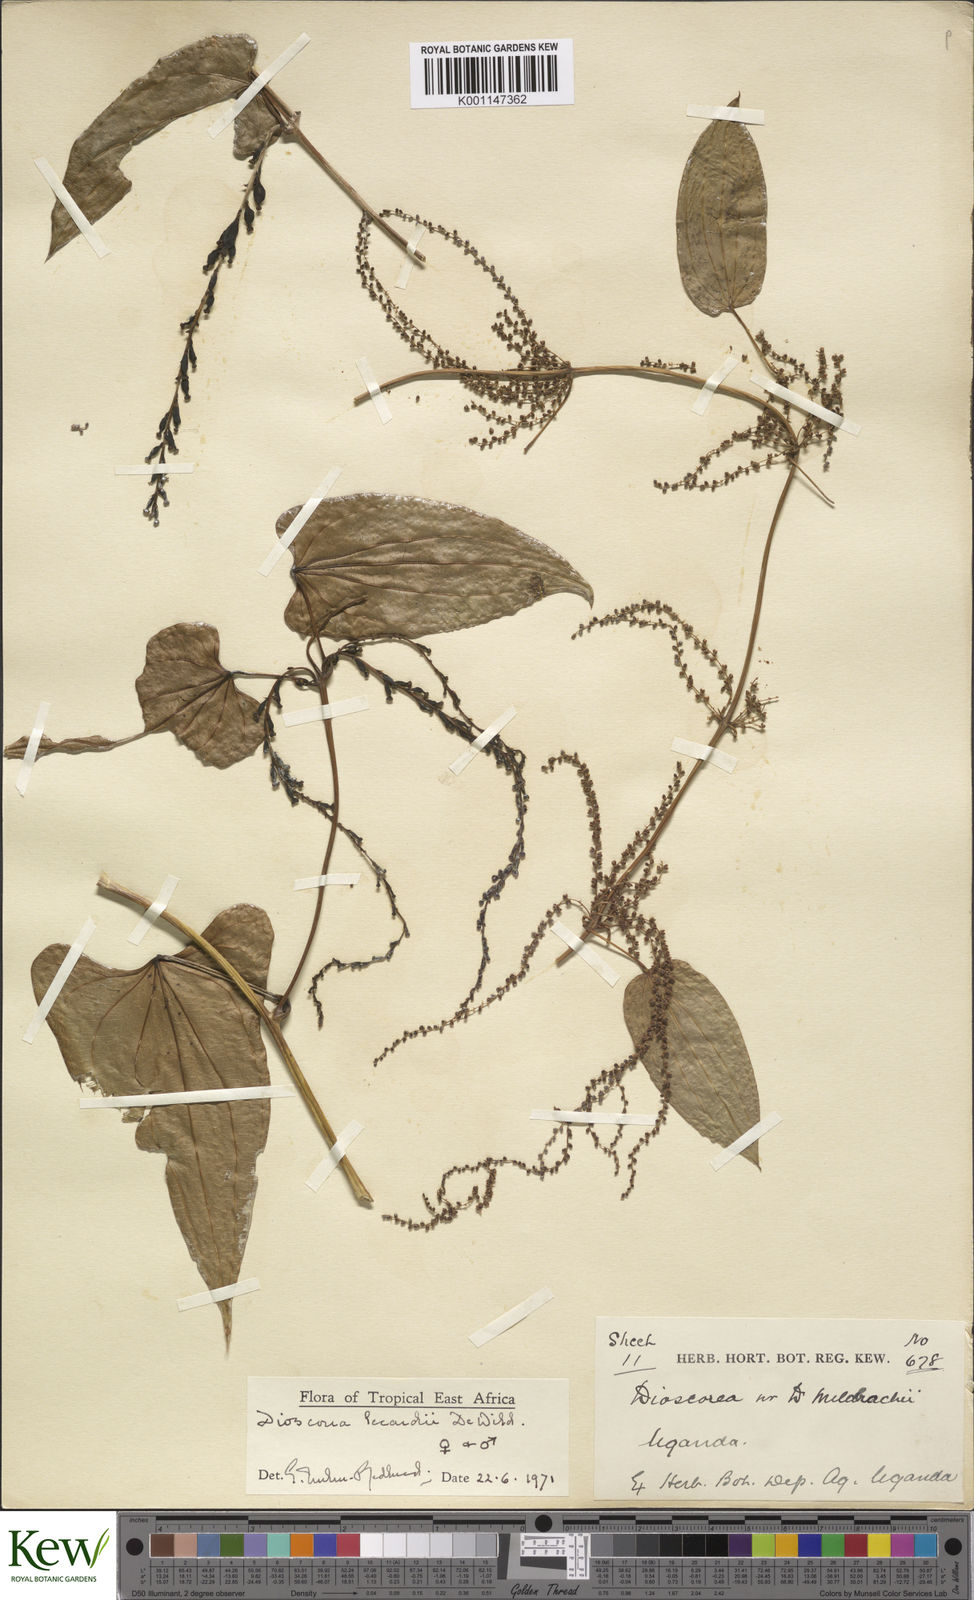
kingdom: Plantae
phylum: Tracheophyta
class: Liliopsida
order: Dioscoreales
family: Dioscoreaceae
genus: Dioscorea
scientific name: Dioscorea sagittifolia
